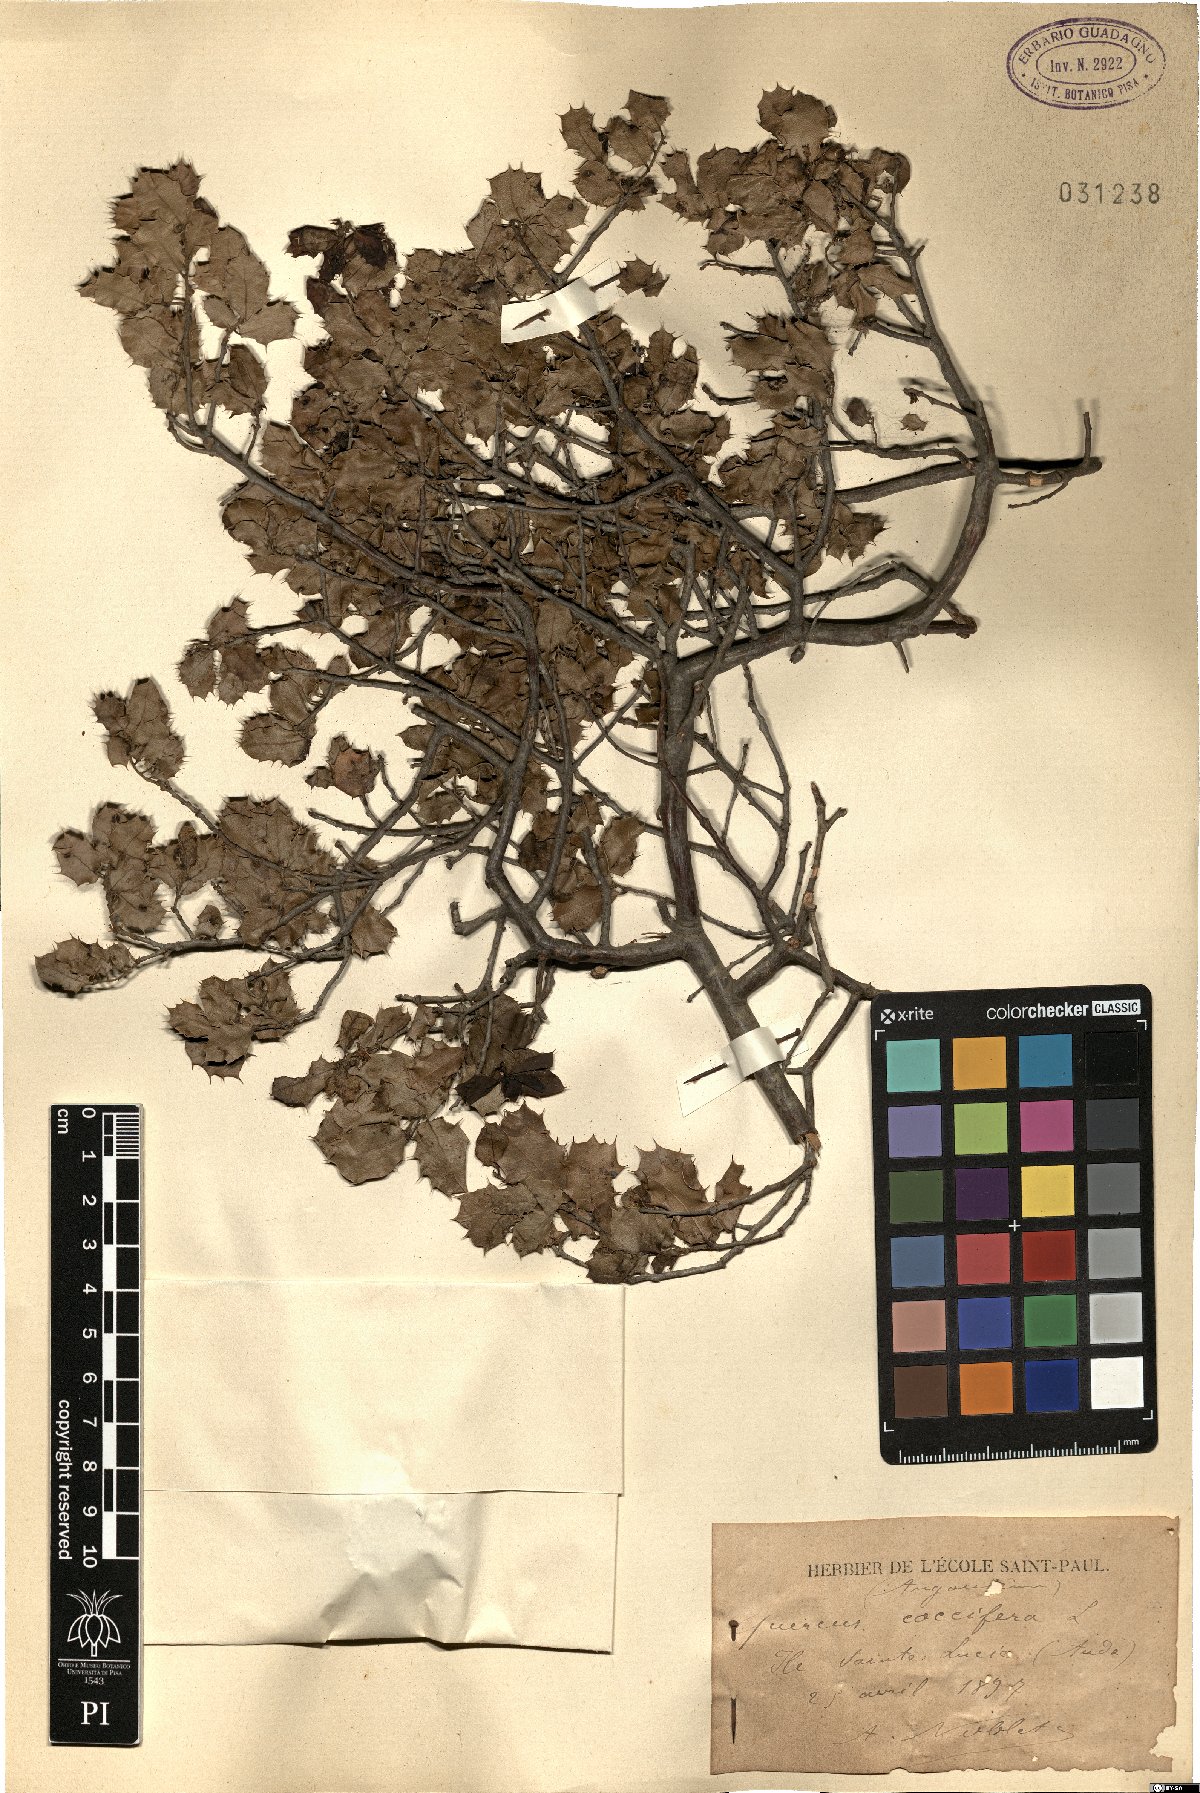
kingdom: Plantae
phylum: Tracheophyta
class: Magnoliopsida
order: Fagales
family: Fagaceae
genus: Quercus
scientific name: Quercus coccifera
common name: Kermes oak
